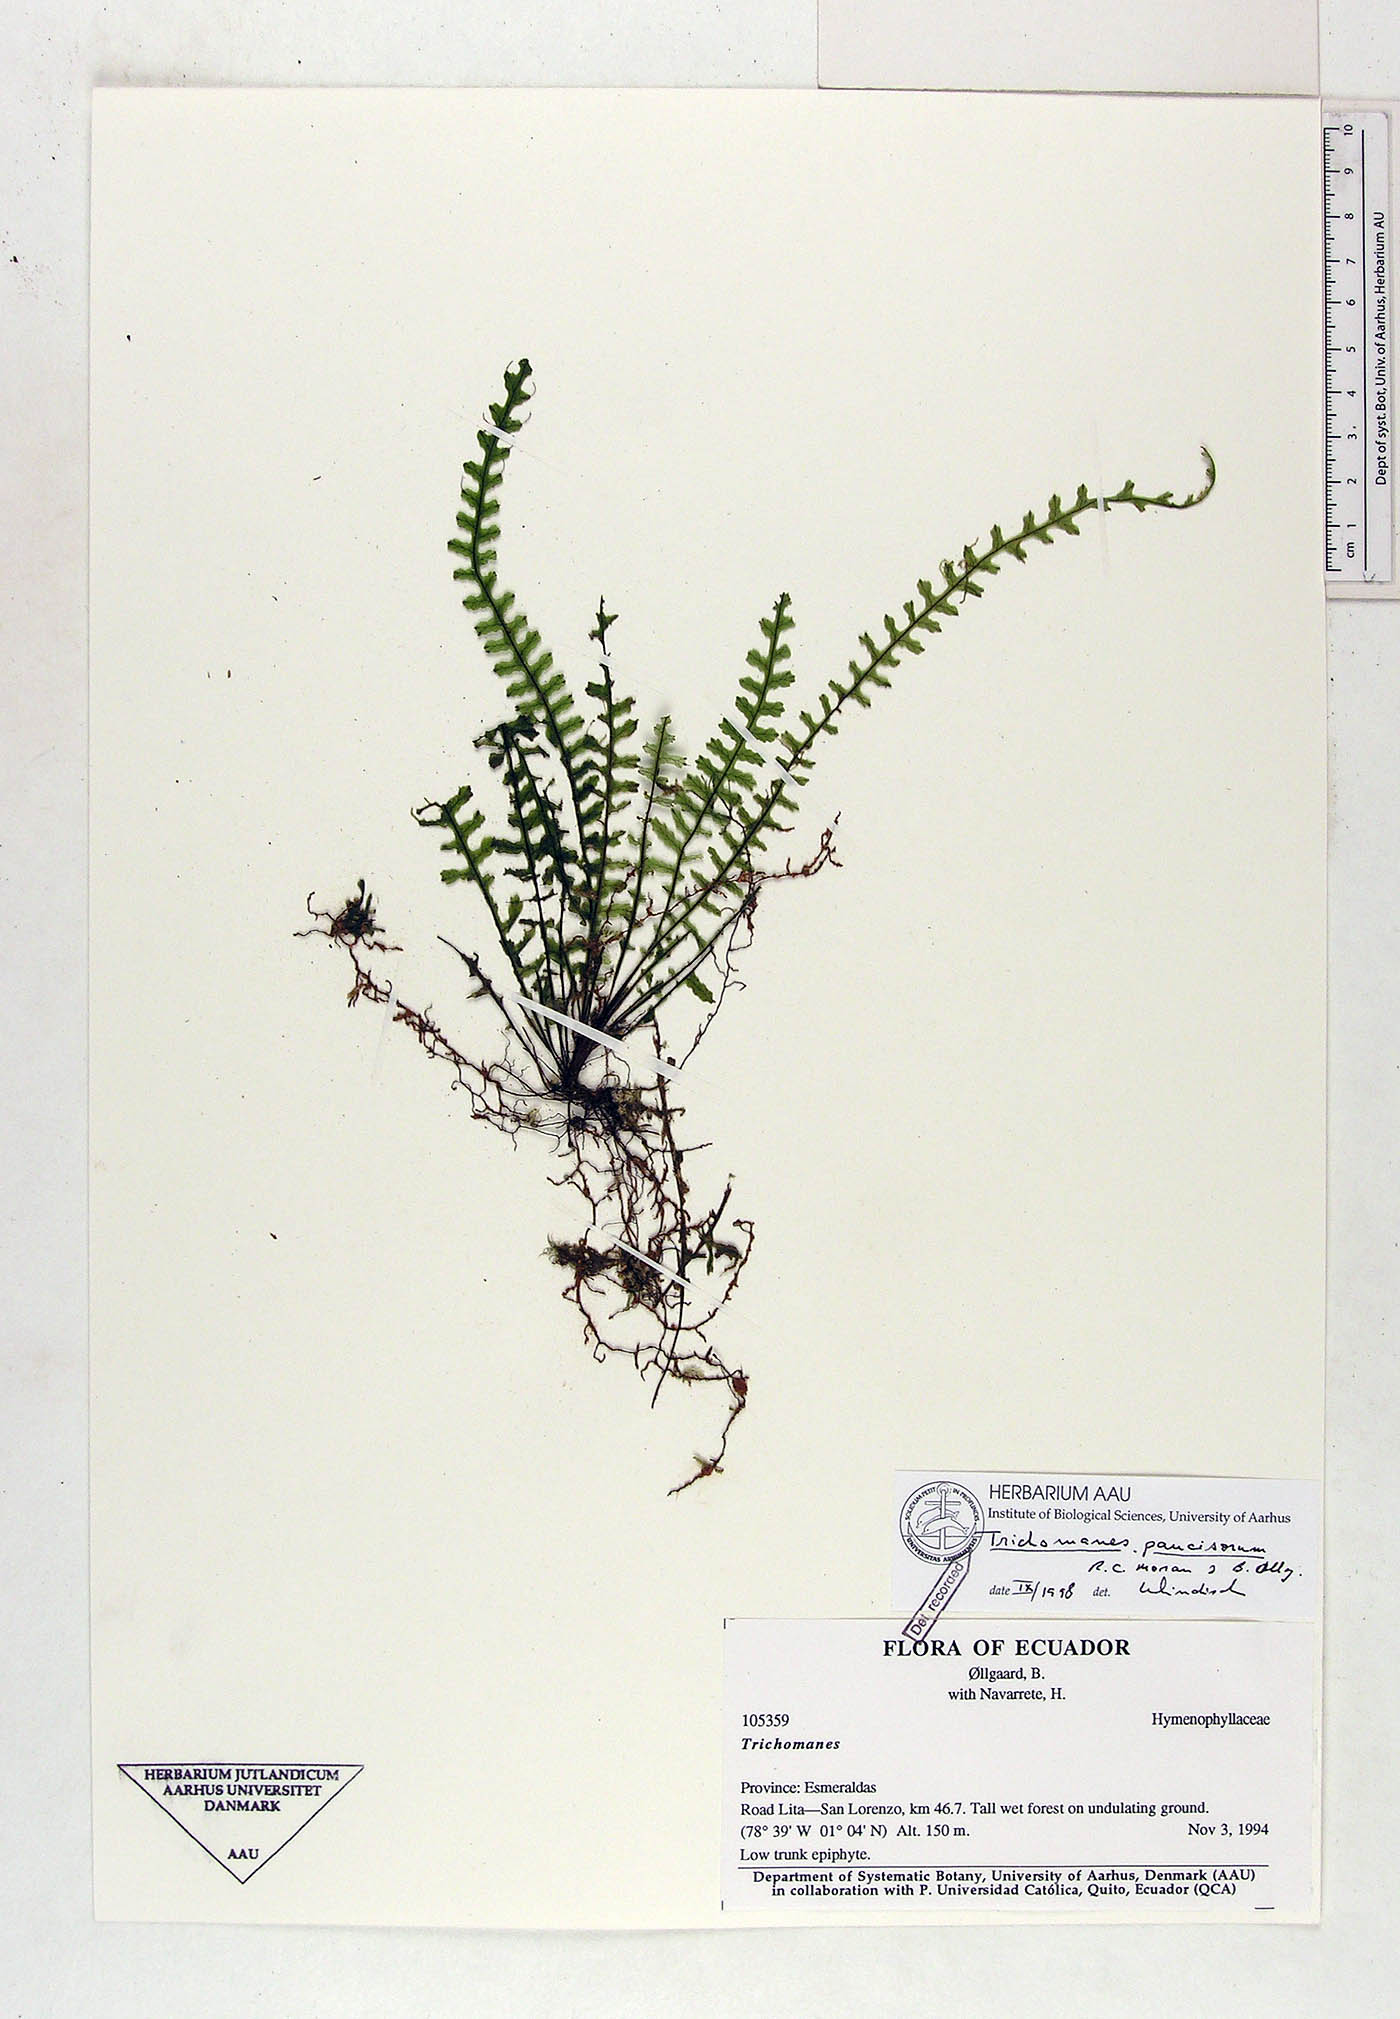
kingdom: Plantae
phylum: Tracheophyta
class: Polypodiopsida
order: Hymenophyllales
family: Hymenophyllaceae
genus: Trichomanes
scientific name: Trichomanes paucisorum
